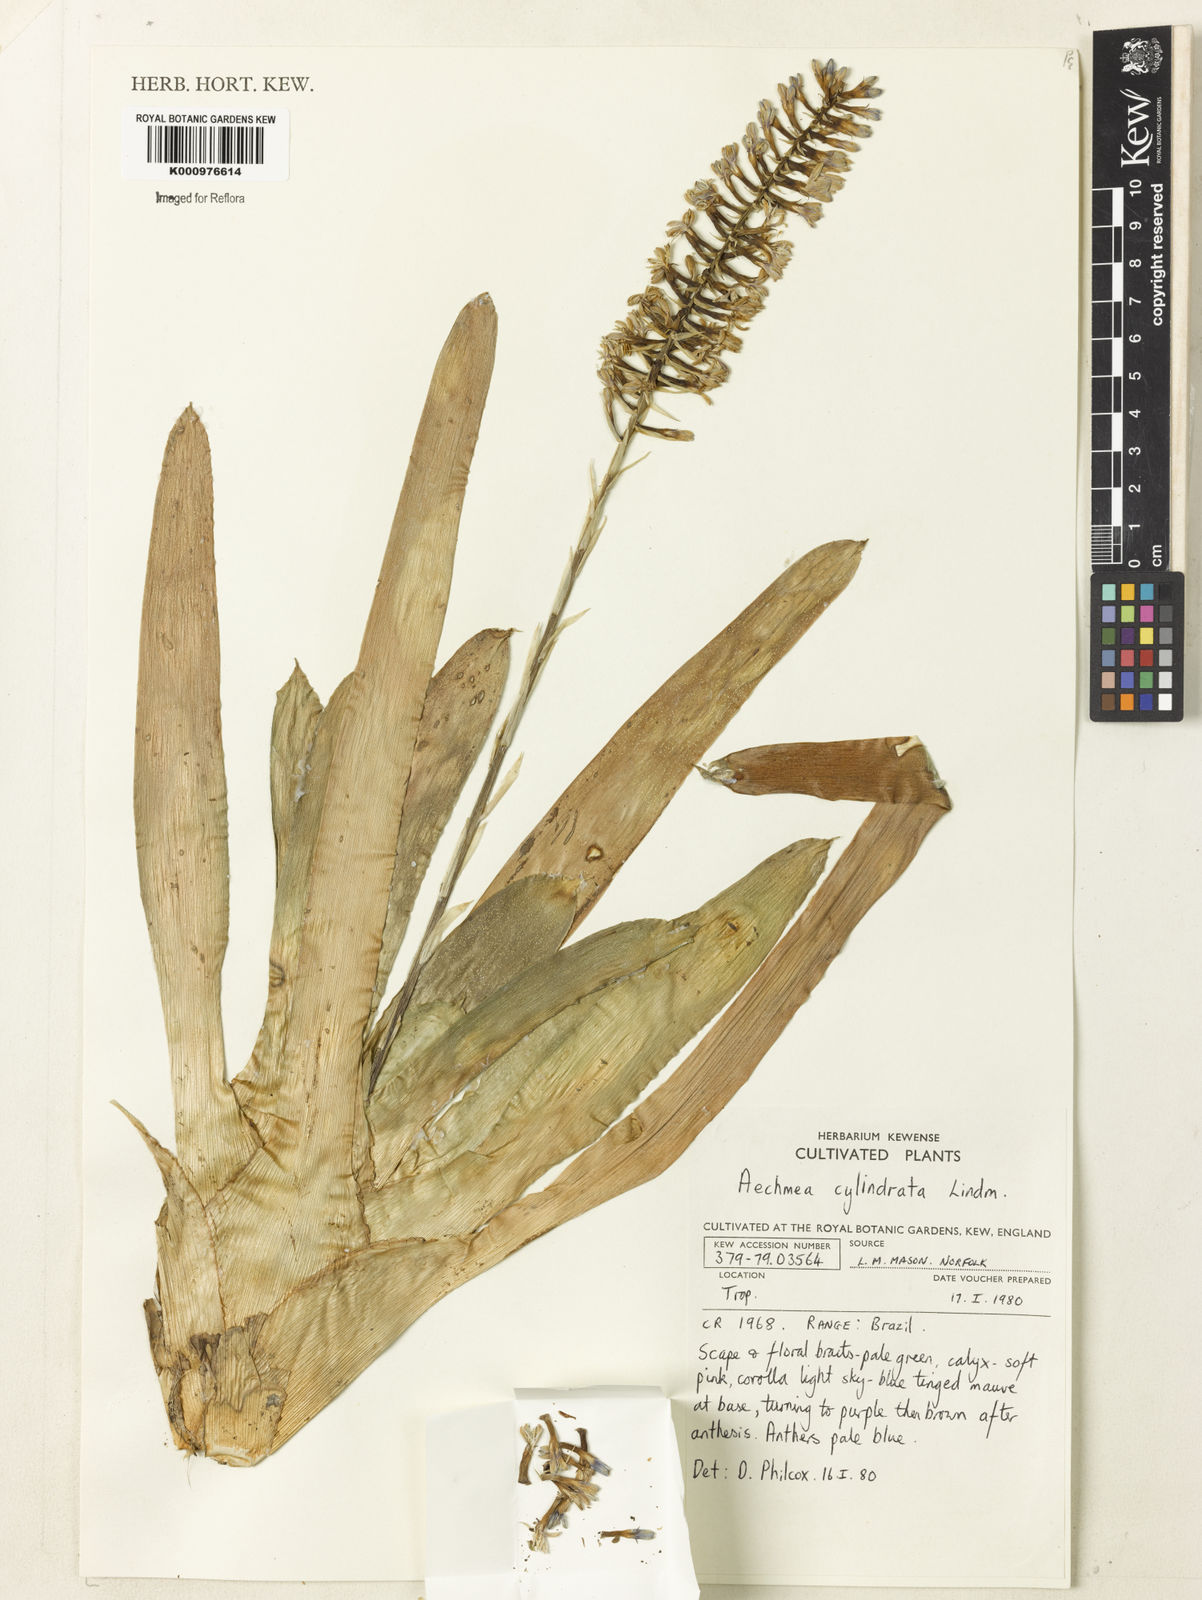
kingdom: Plantae
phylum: Tracheophyta
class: Liliopsida
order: Poales
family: Bromeliaceae
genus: Aechmea
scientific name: Aechmea cylindrata
